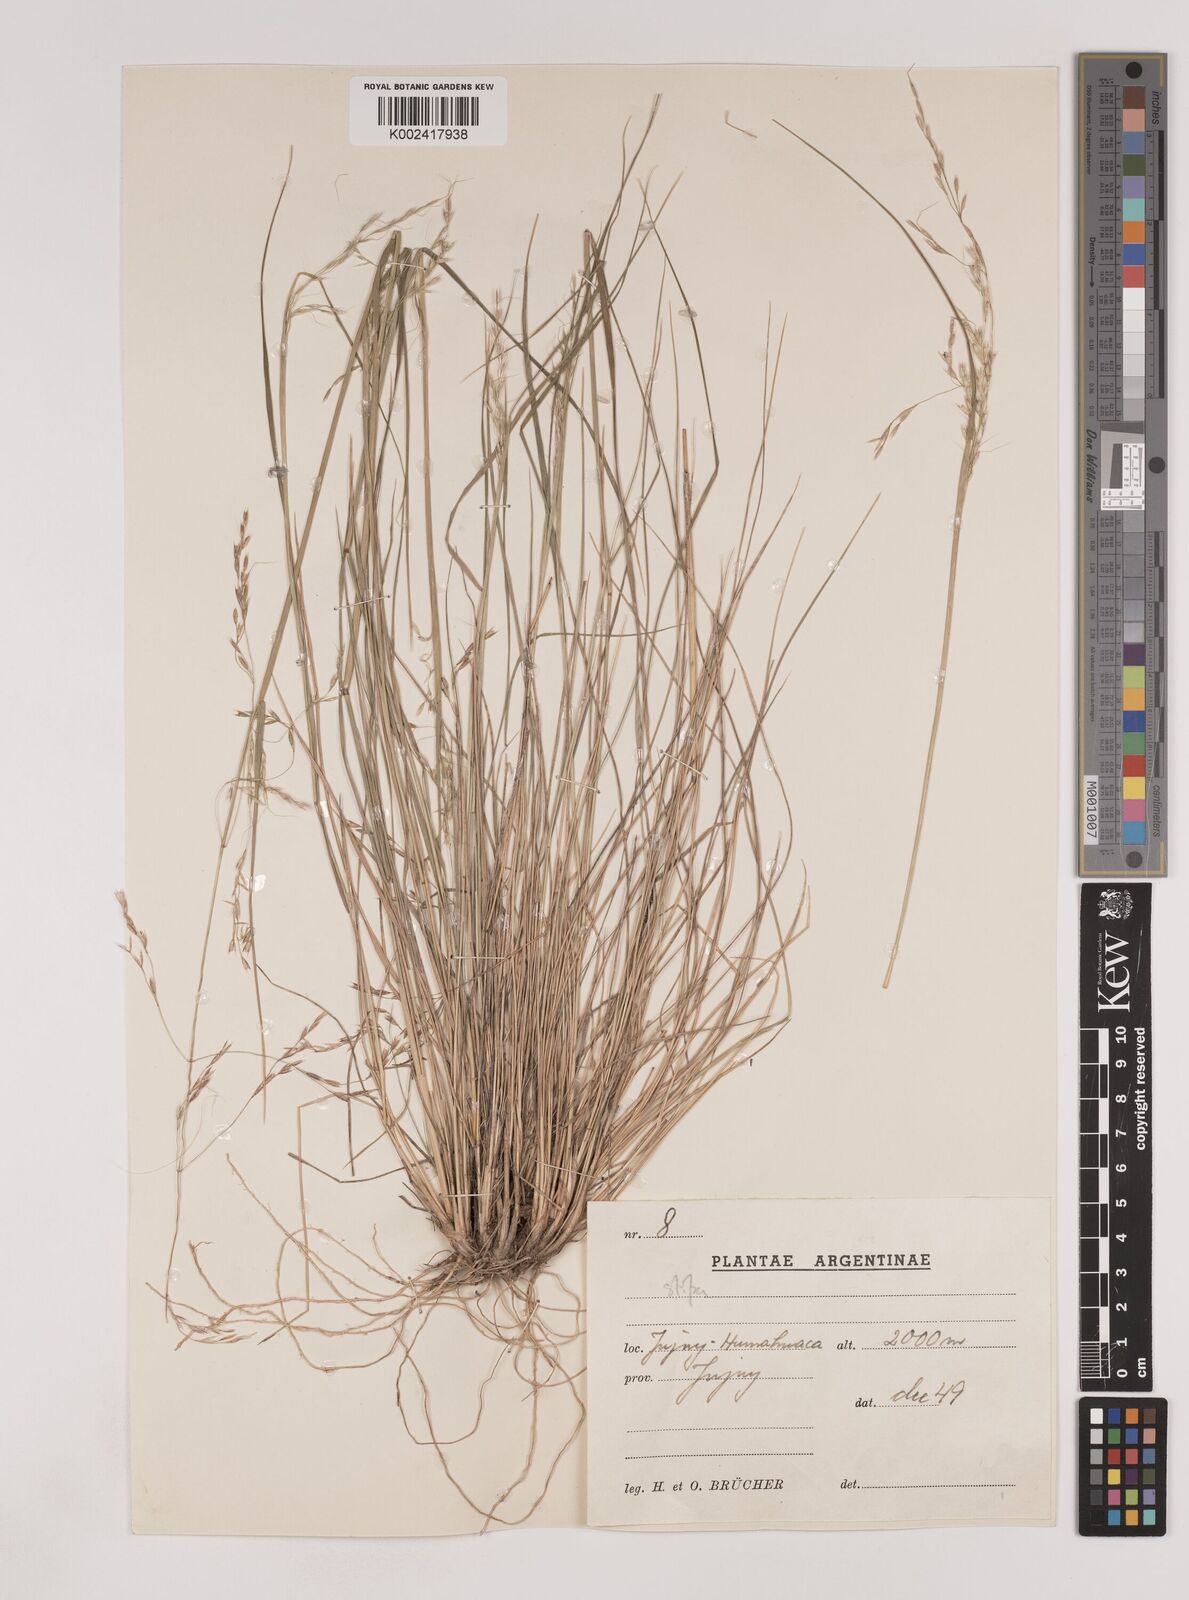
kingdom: Plantae
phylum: Tracheophyta
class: Liliopsida
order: Poales
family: Poaceae
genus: Nassella
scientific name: Nassella philippii
